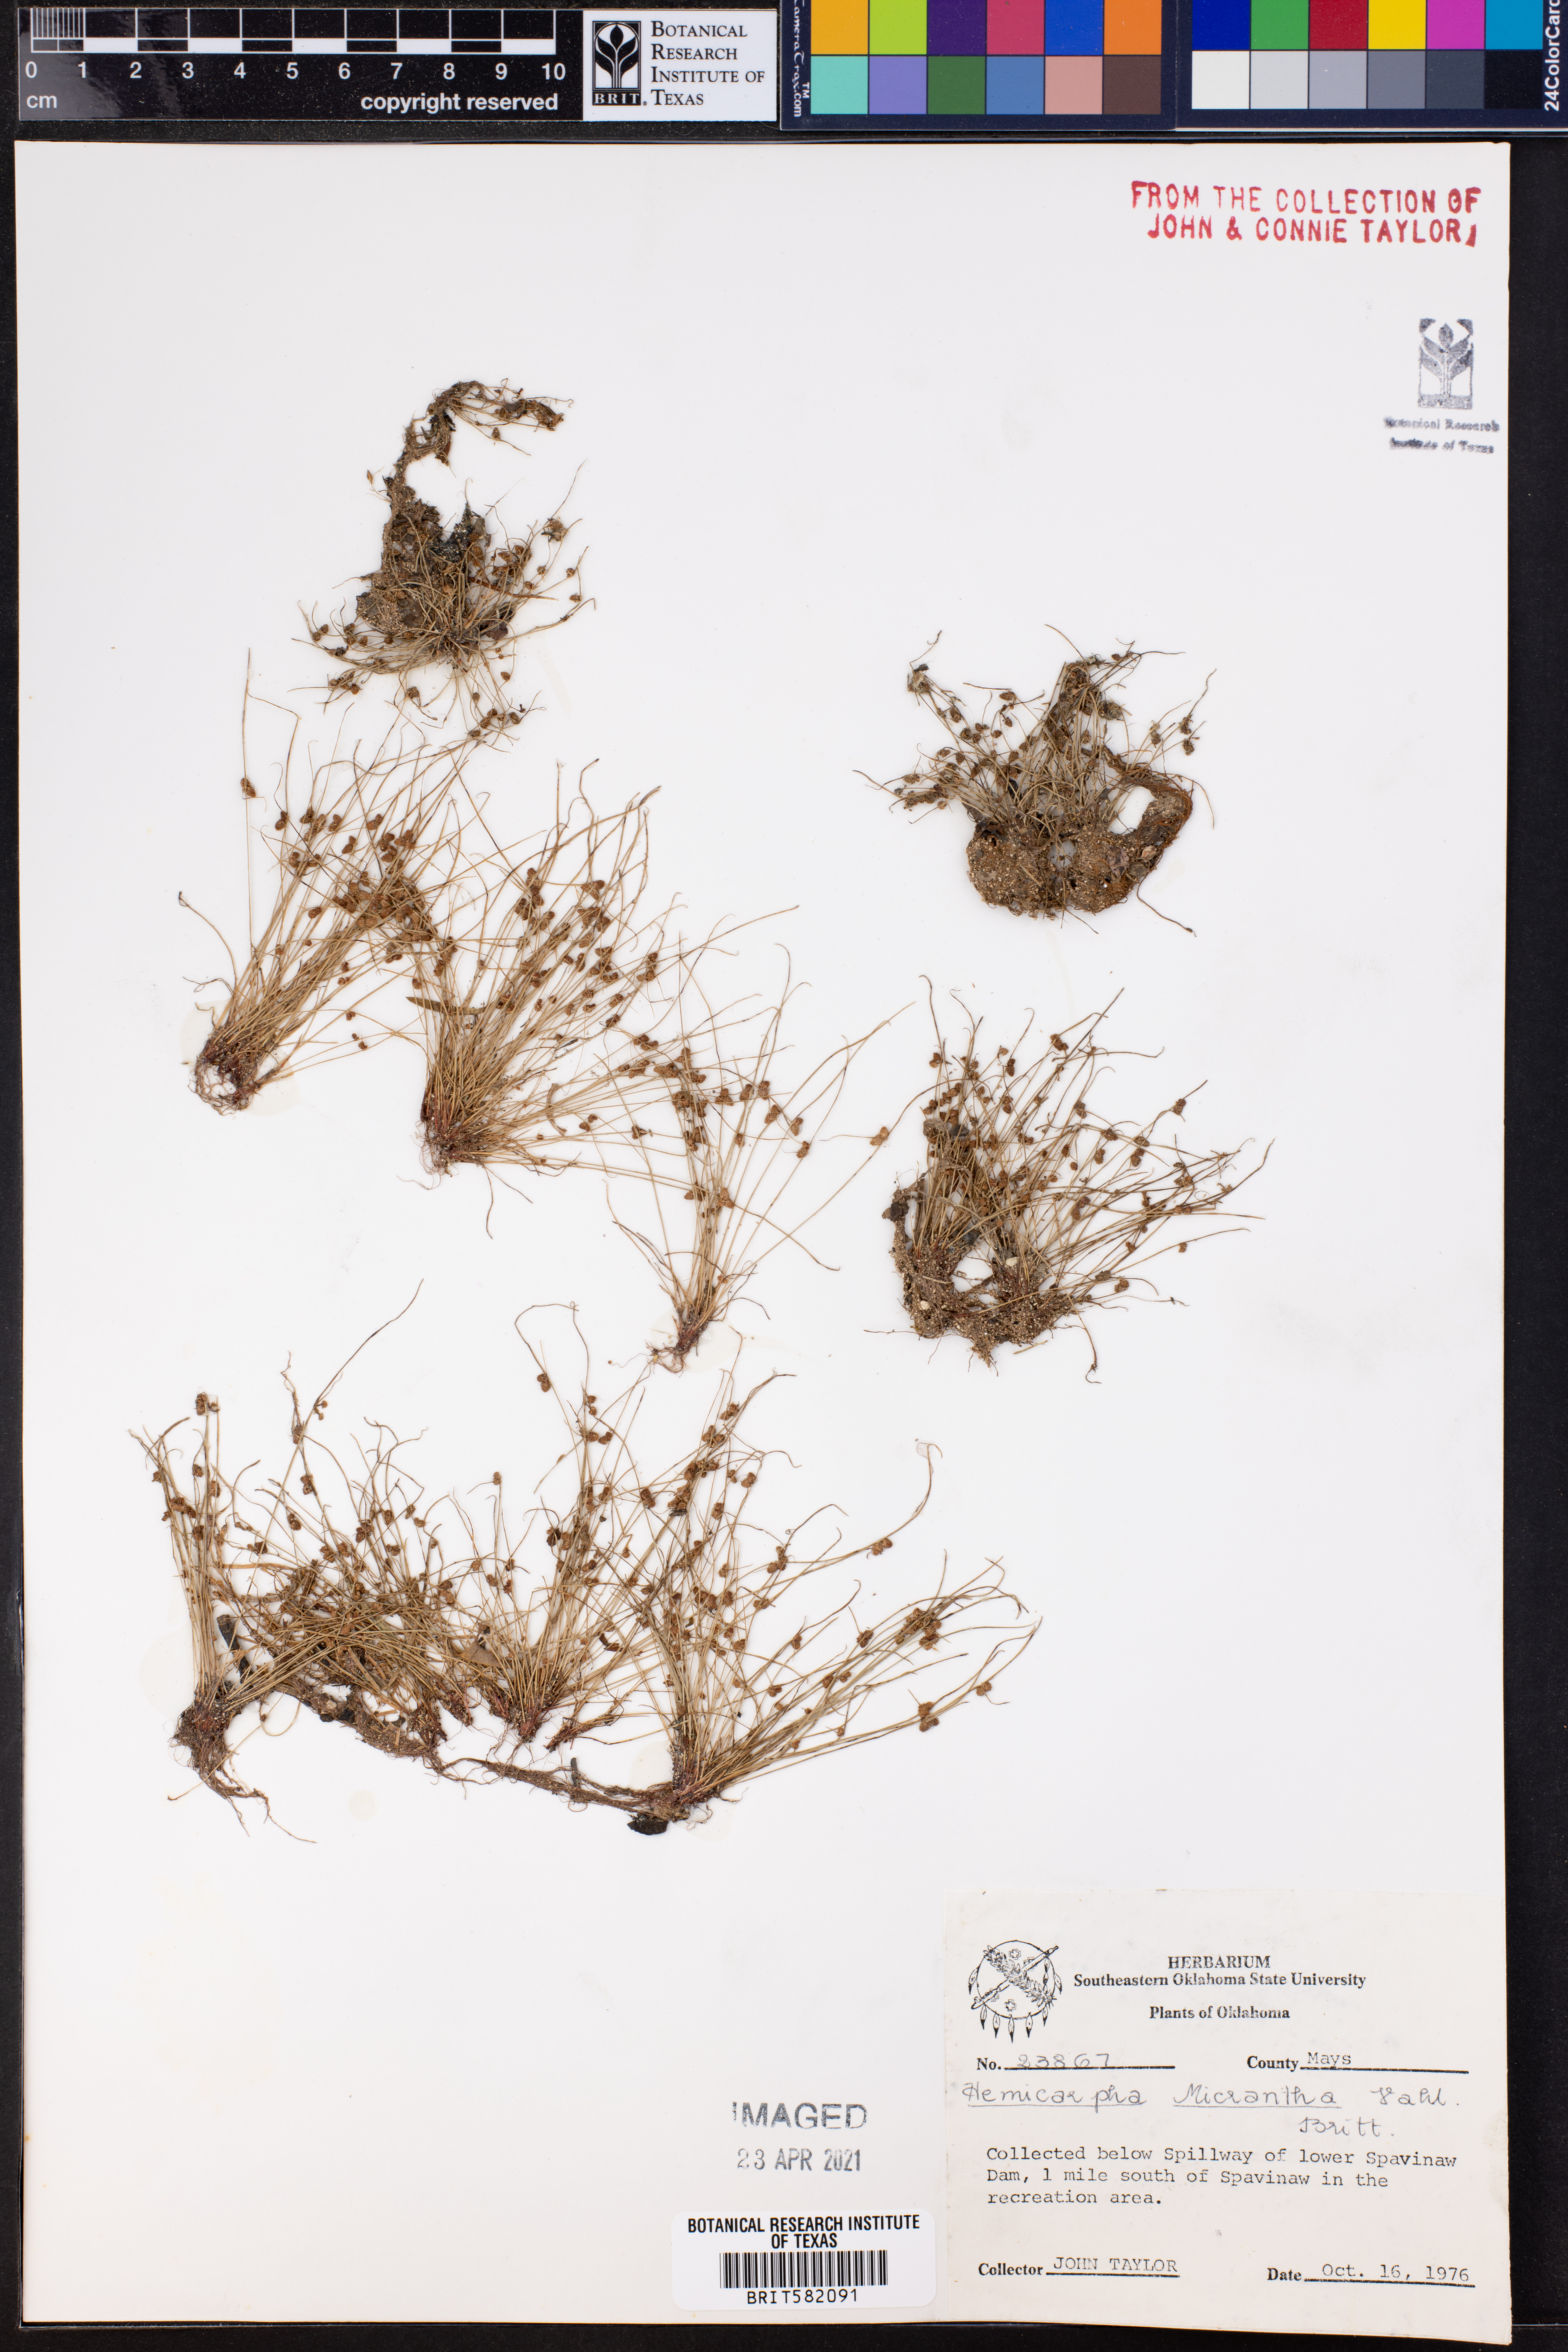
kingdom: Plantae
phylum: Tracheophyta
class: Liliopsida
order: Poales
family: Cyperaceae
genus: Cyperus
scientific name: Cyperus subsquarrosus
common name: Dwarf bulrush
